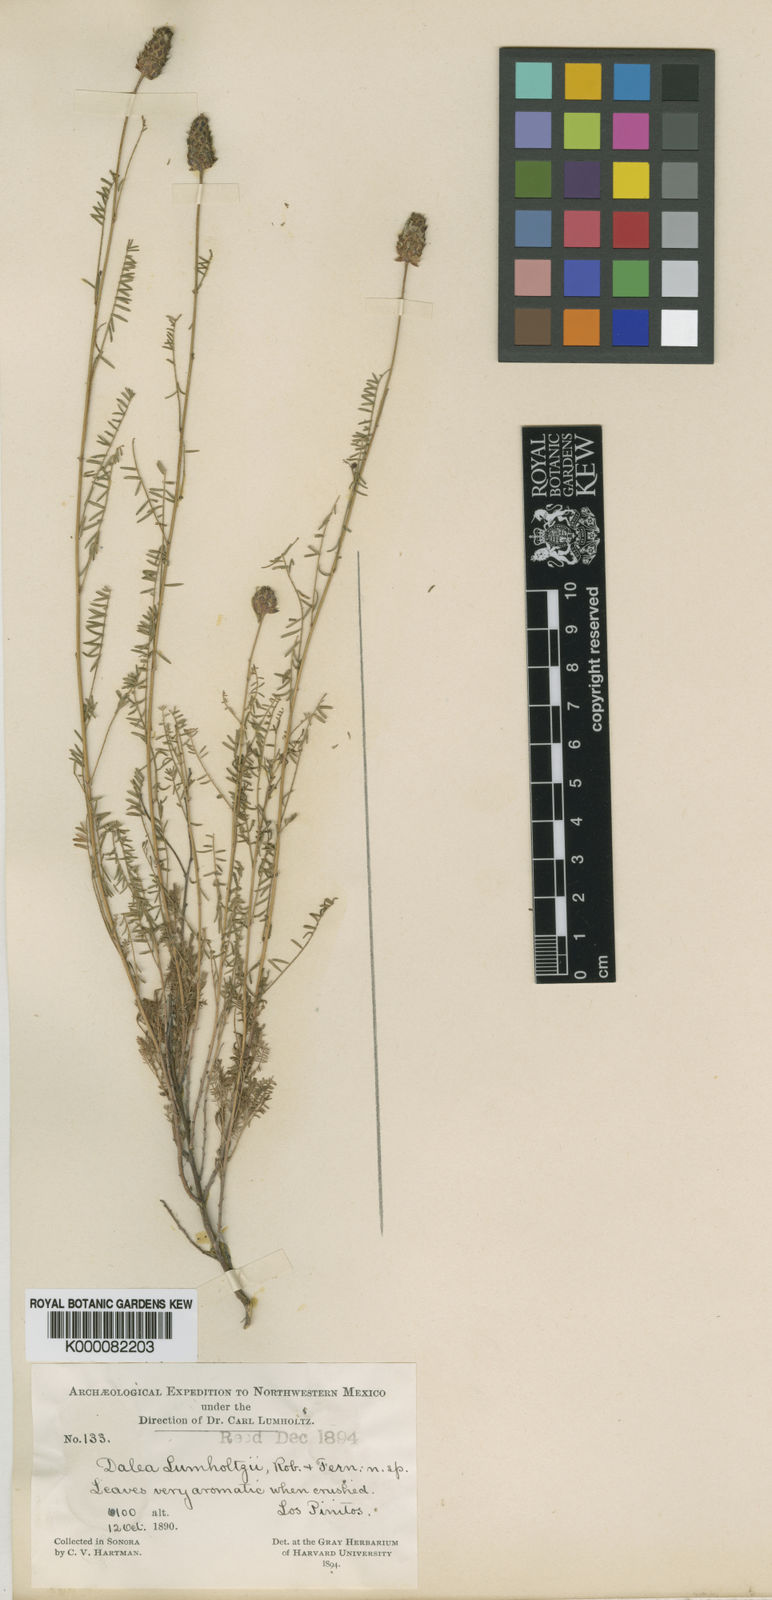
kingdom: Plantae
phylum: Tracheophyta
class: Magnoliopsida
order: Fabales
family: Fabaceae
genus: Dalea
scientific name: Dalea lumholtzii
